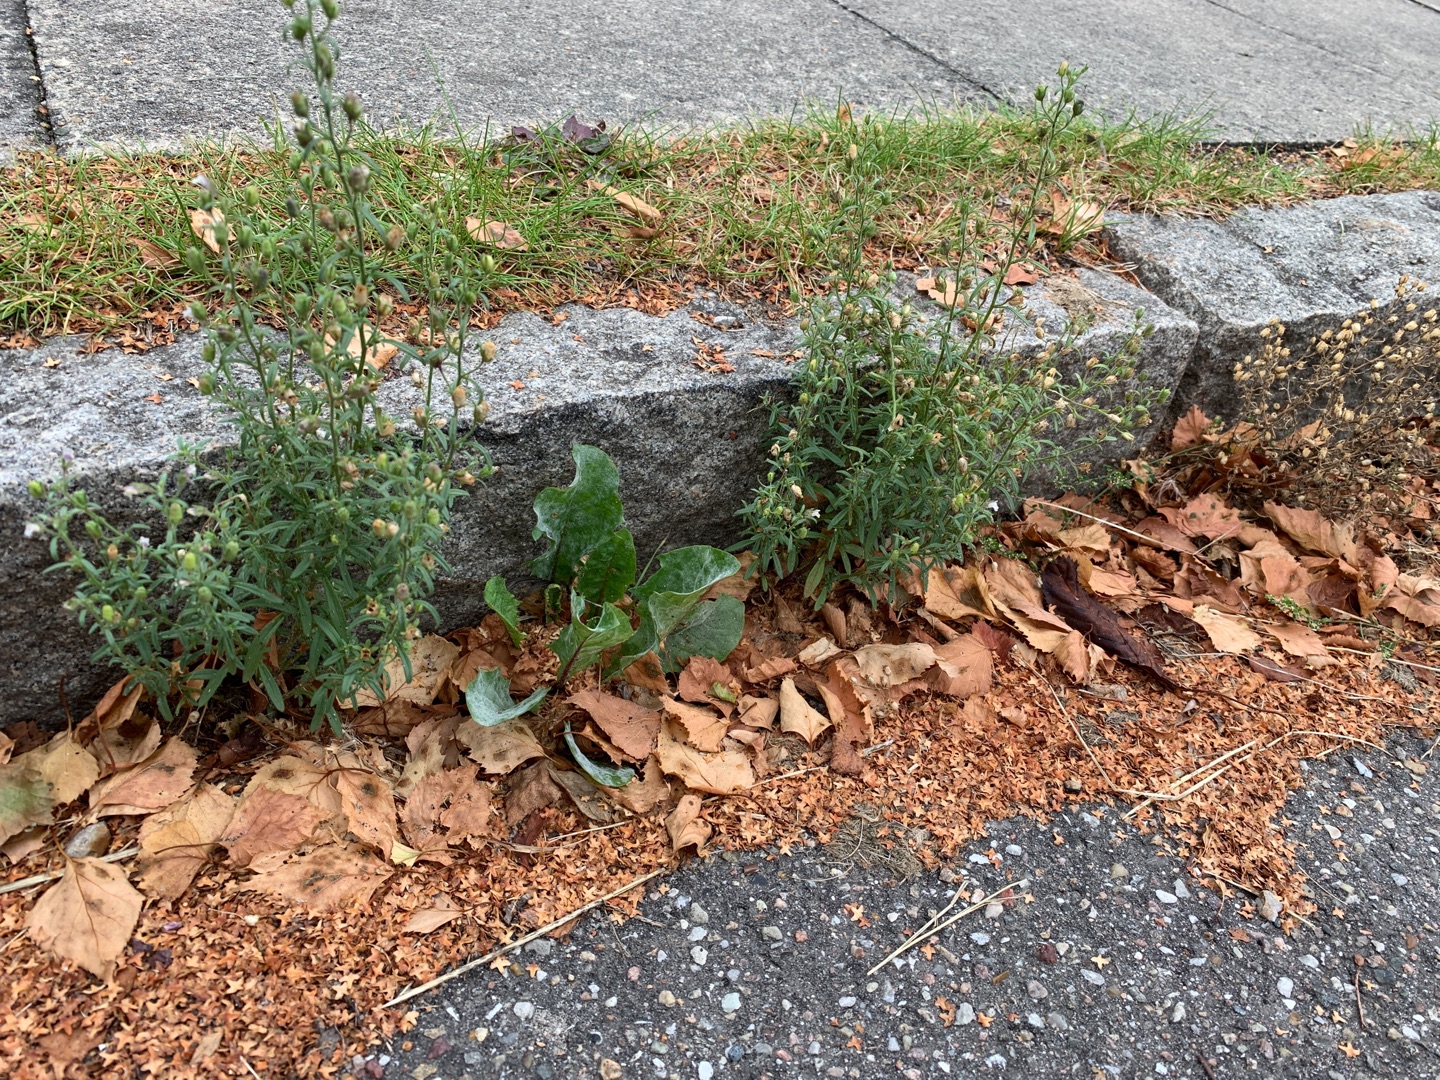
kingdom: Plantae
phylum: Tracheophyta
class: Magnoliopsida
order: Lamiales
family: Plantaginaceae
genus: Chaenorhinum
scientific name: Chaenorhinum minus
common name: Liden torskemund
